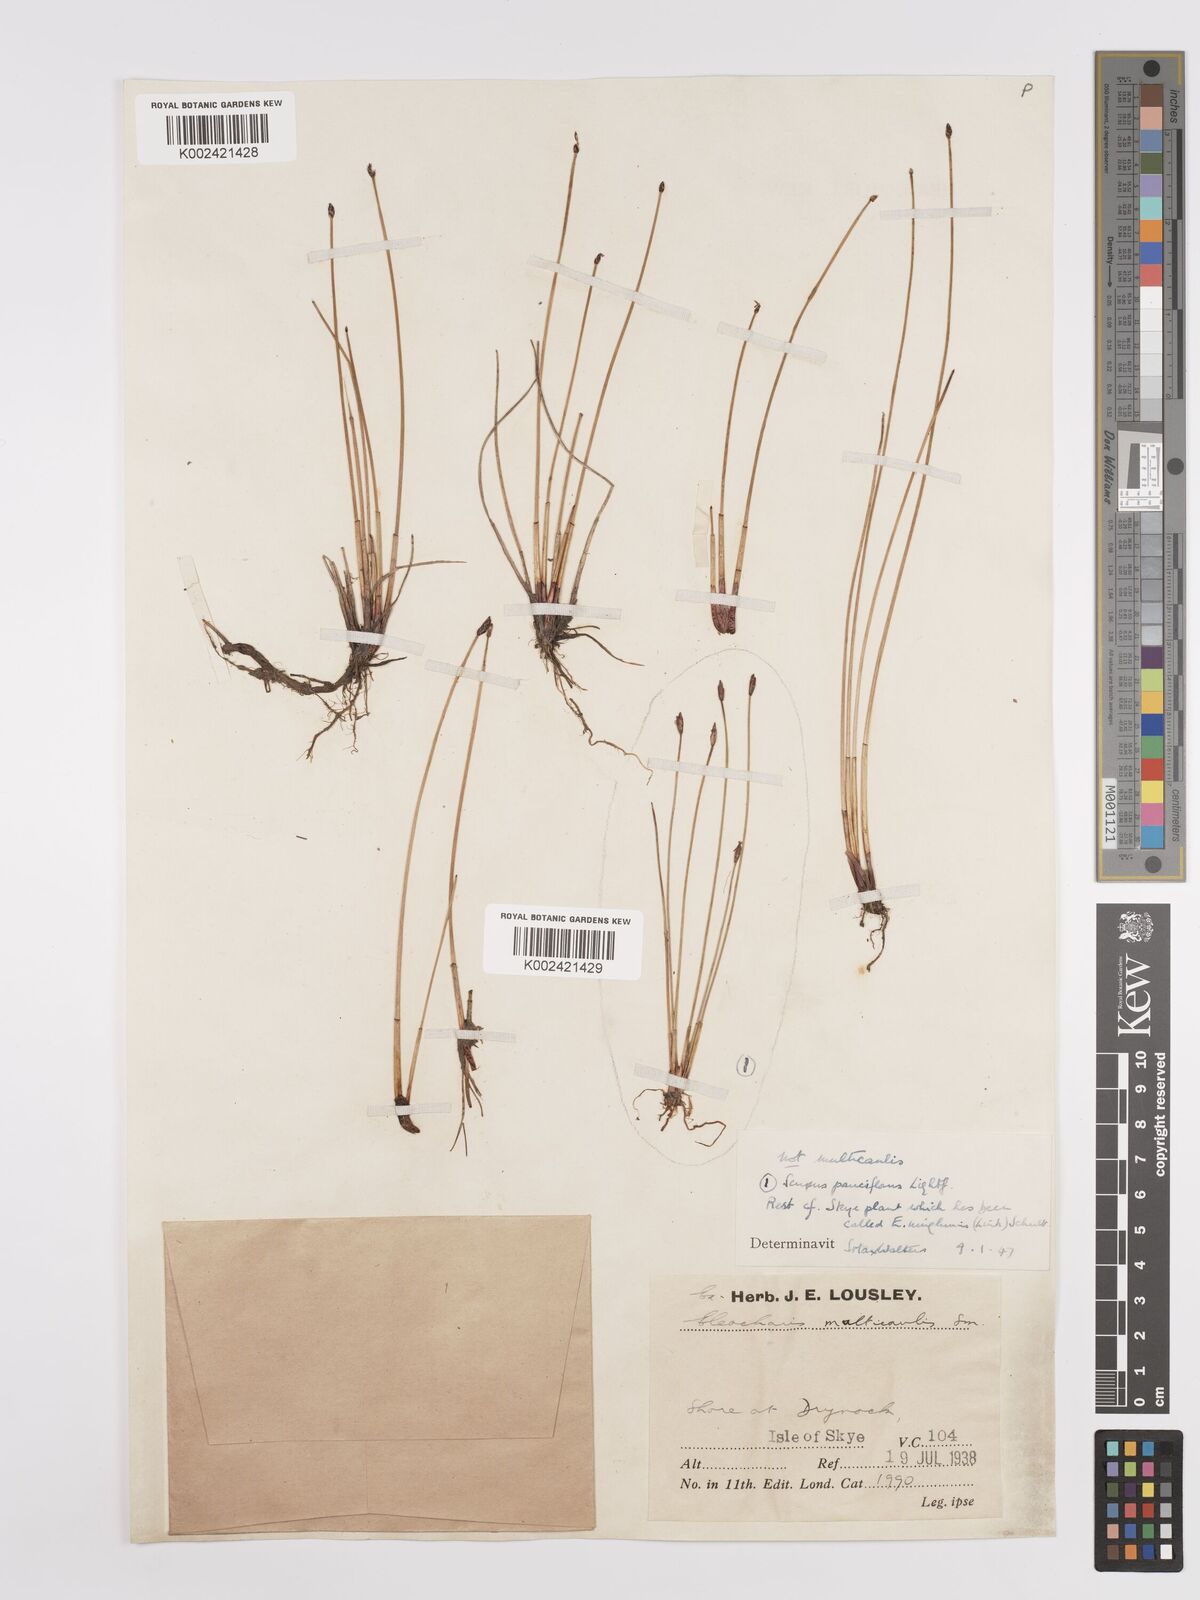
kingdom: Plantae
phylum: Tracheophyta
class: Liliopsida
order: Poales
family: Cyperaceae
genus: Eleocharis
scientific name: Eleocharis uniglumis
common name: Slender spike-rush
